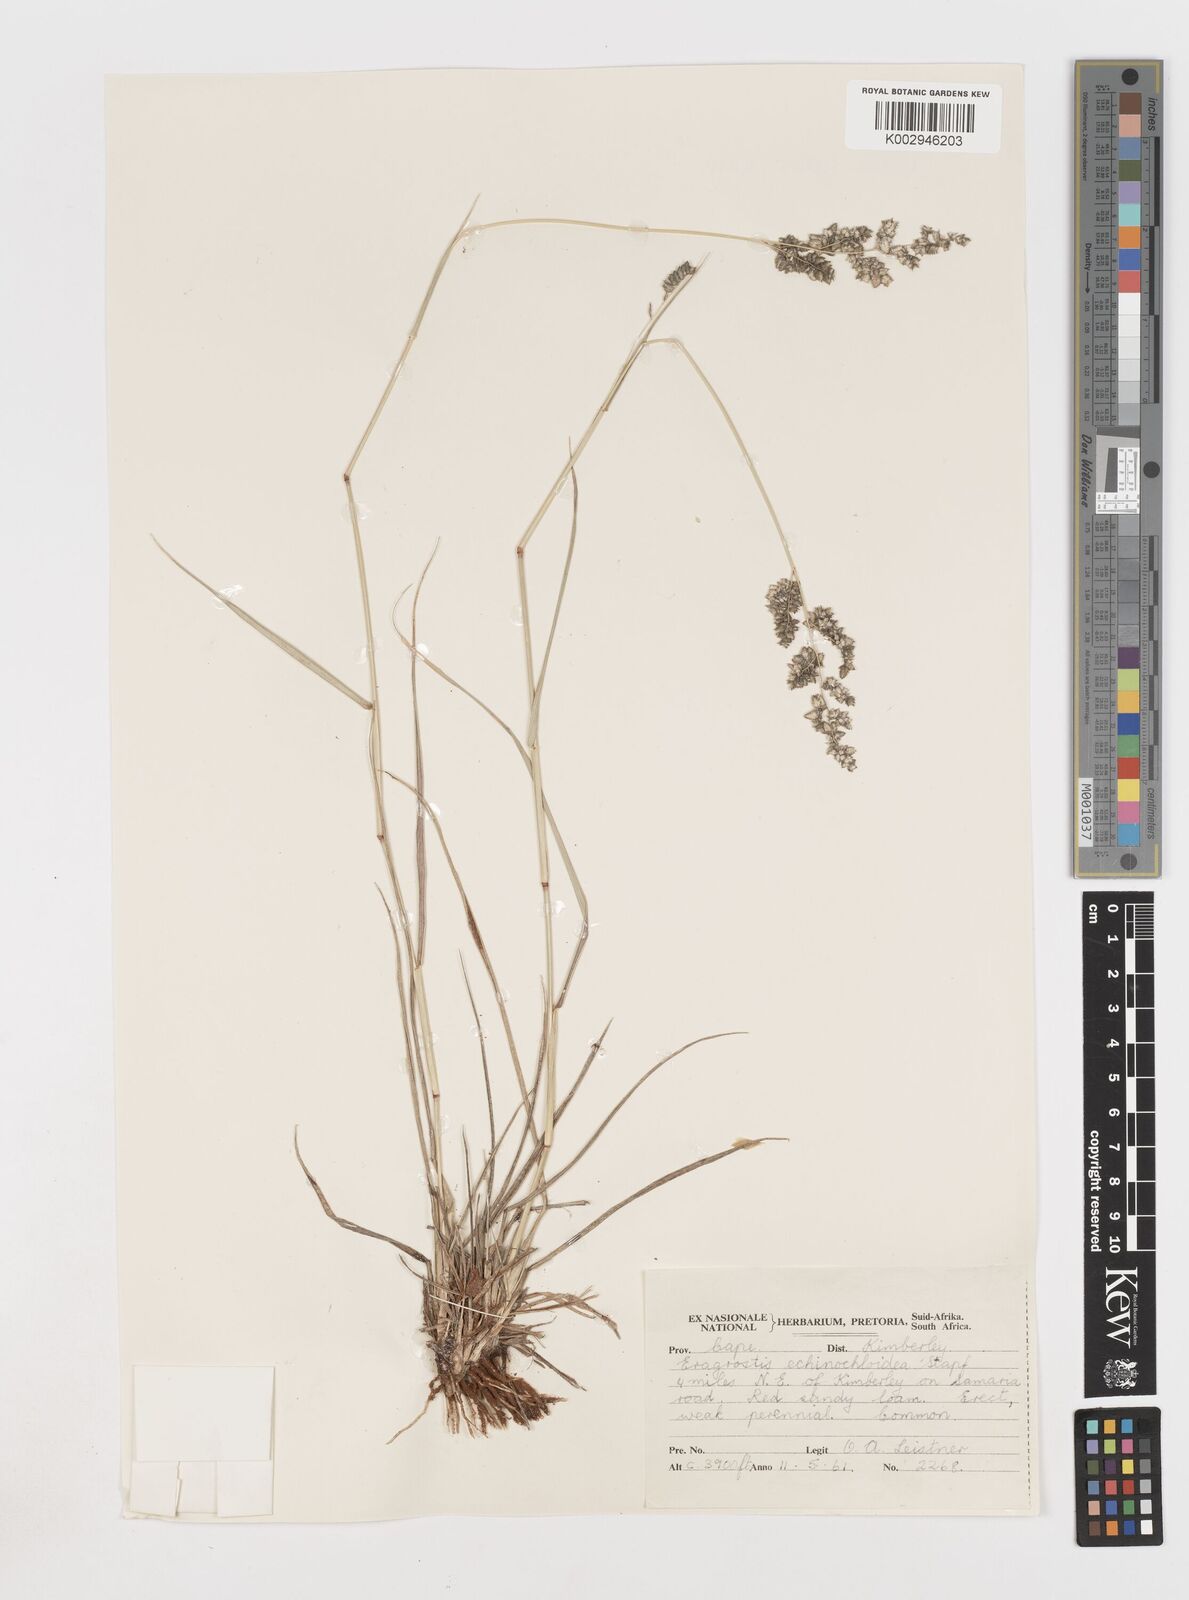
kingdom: Plantae
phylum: Tracheophyta
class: Liliopsida
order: Poales
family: Poaceae
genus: Eragrostis
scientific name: Eragrostis echinochloidea
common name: African lovegrass
